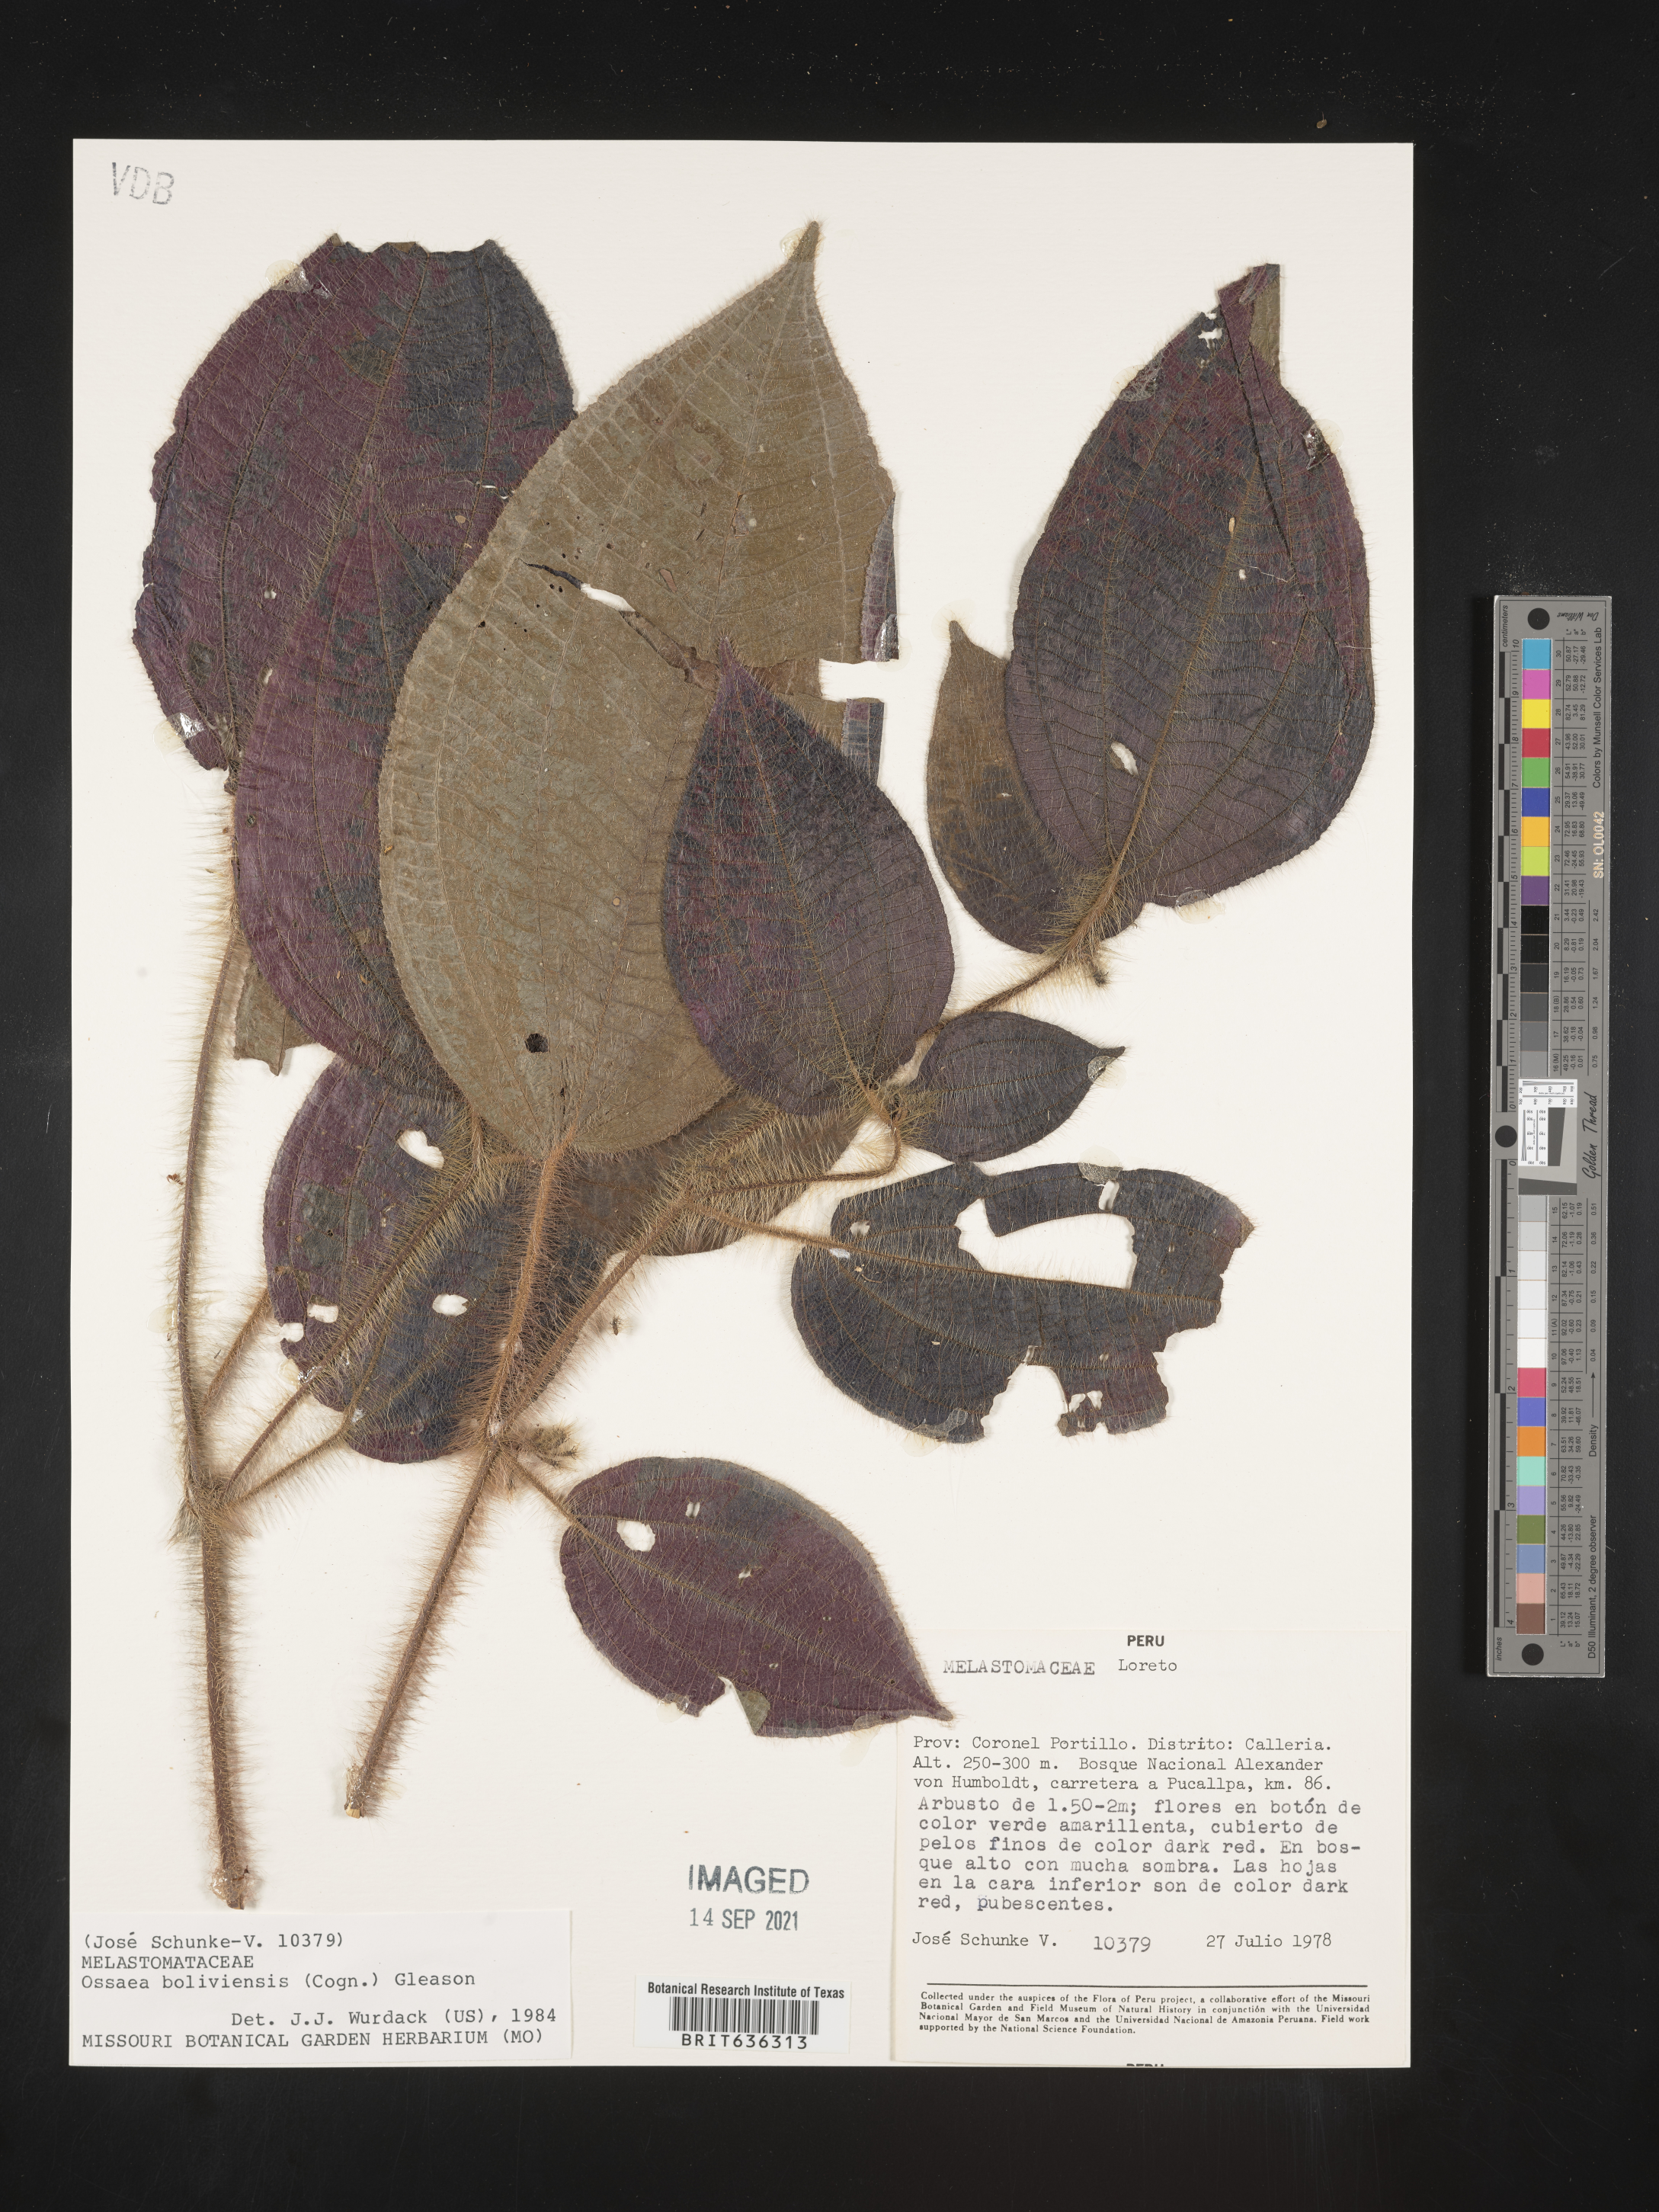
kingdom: Plantae
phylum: Tracheophyta
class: Magnoliopsida
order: Myrtales
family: Melastomataceae
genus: Ossaea
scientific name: Ossaea
